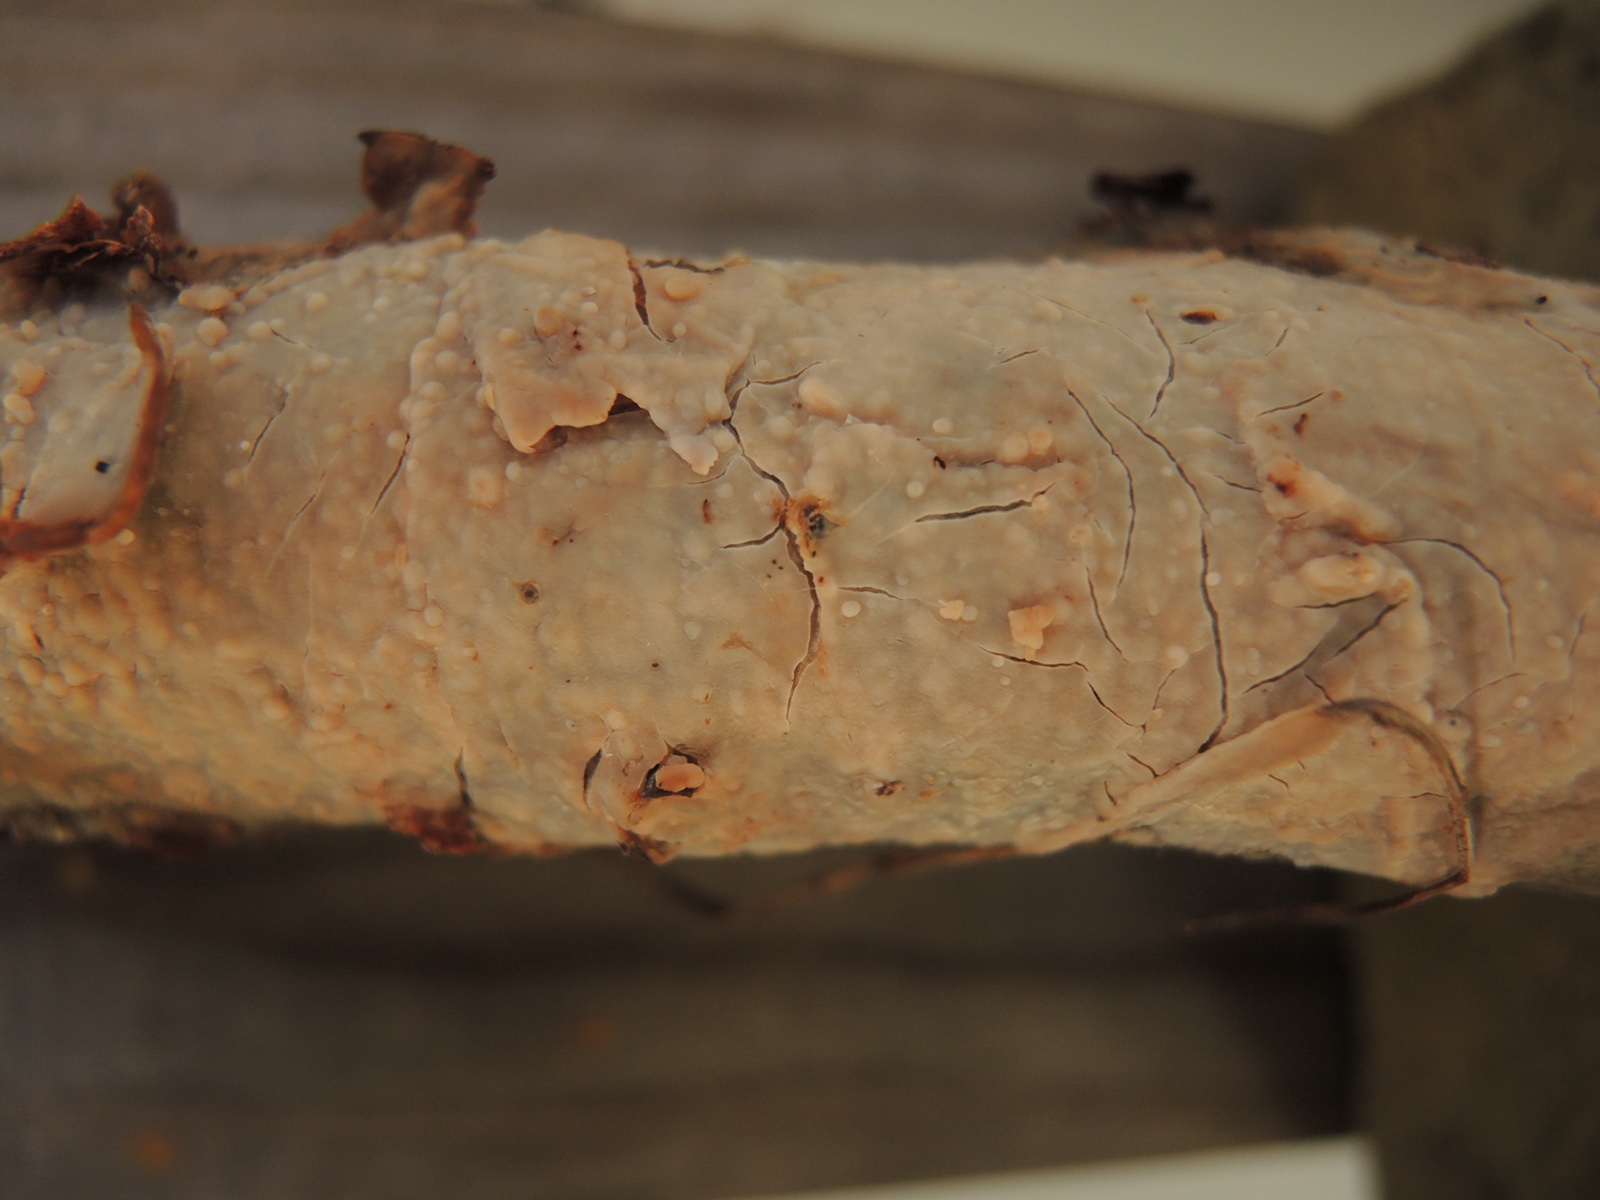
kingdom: Fungi
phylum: Basidiomycota
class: Agaricomycetes
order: Agaricales
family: Radulomycetaceae
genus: Radulomyces
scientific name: Radulomyces confluens
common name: glat naftalinskind
